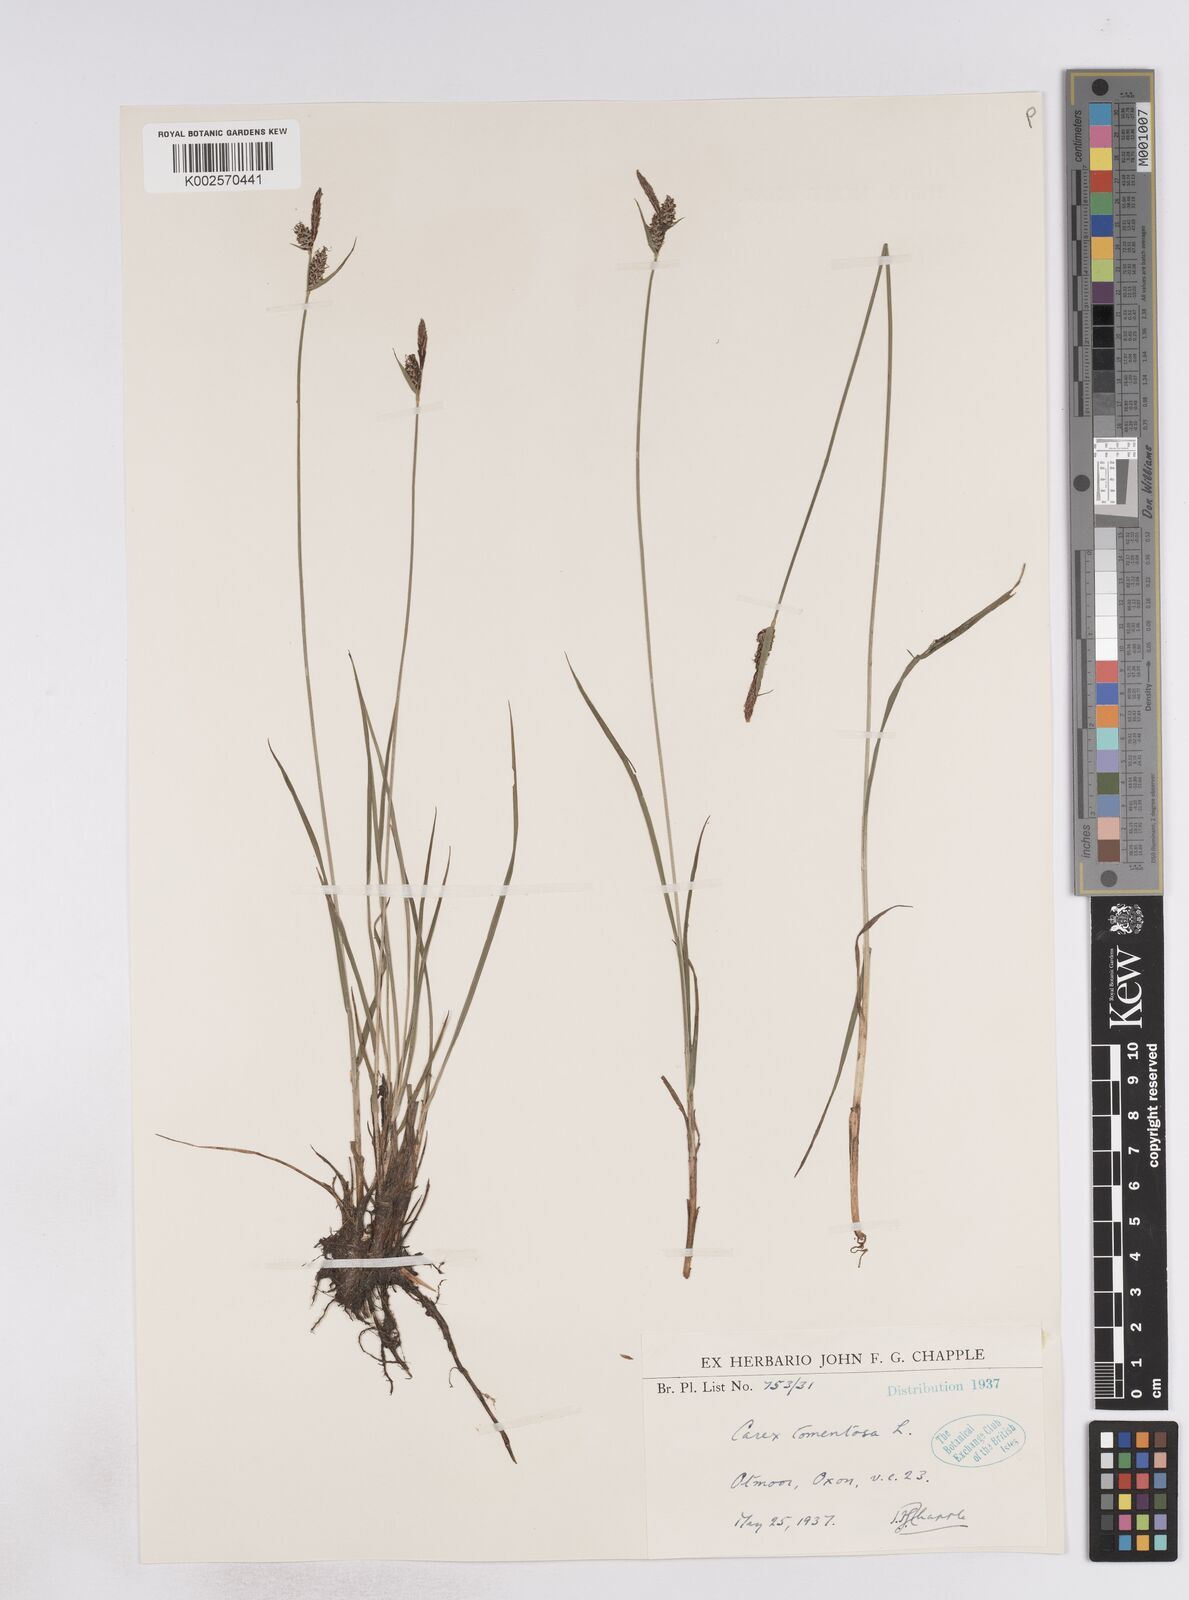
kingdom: Plantae
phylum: Tracheophyta
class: Liliopsida
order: Poales
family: Cyperaceae
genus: Carex
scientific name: Carex montana
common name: Soft-leaved sedge
